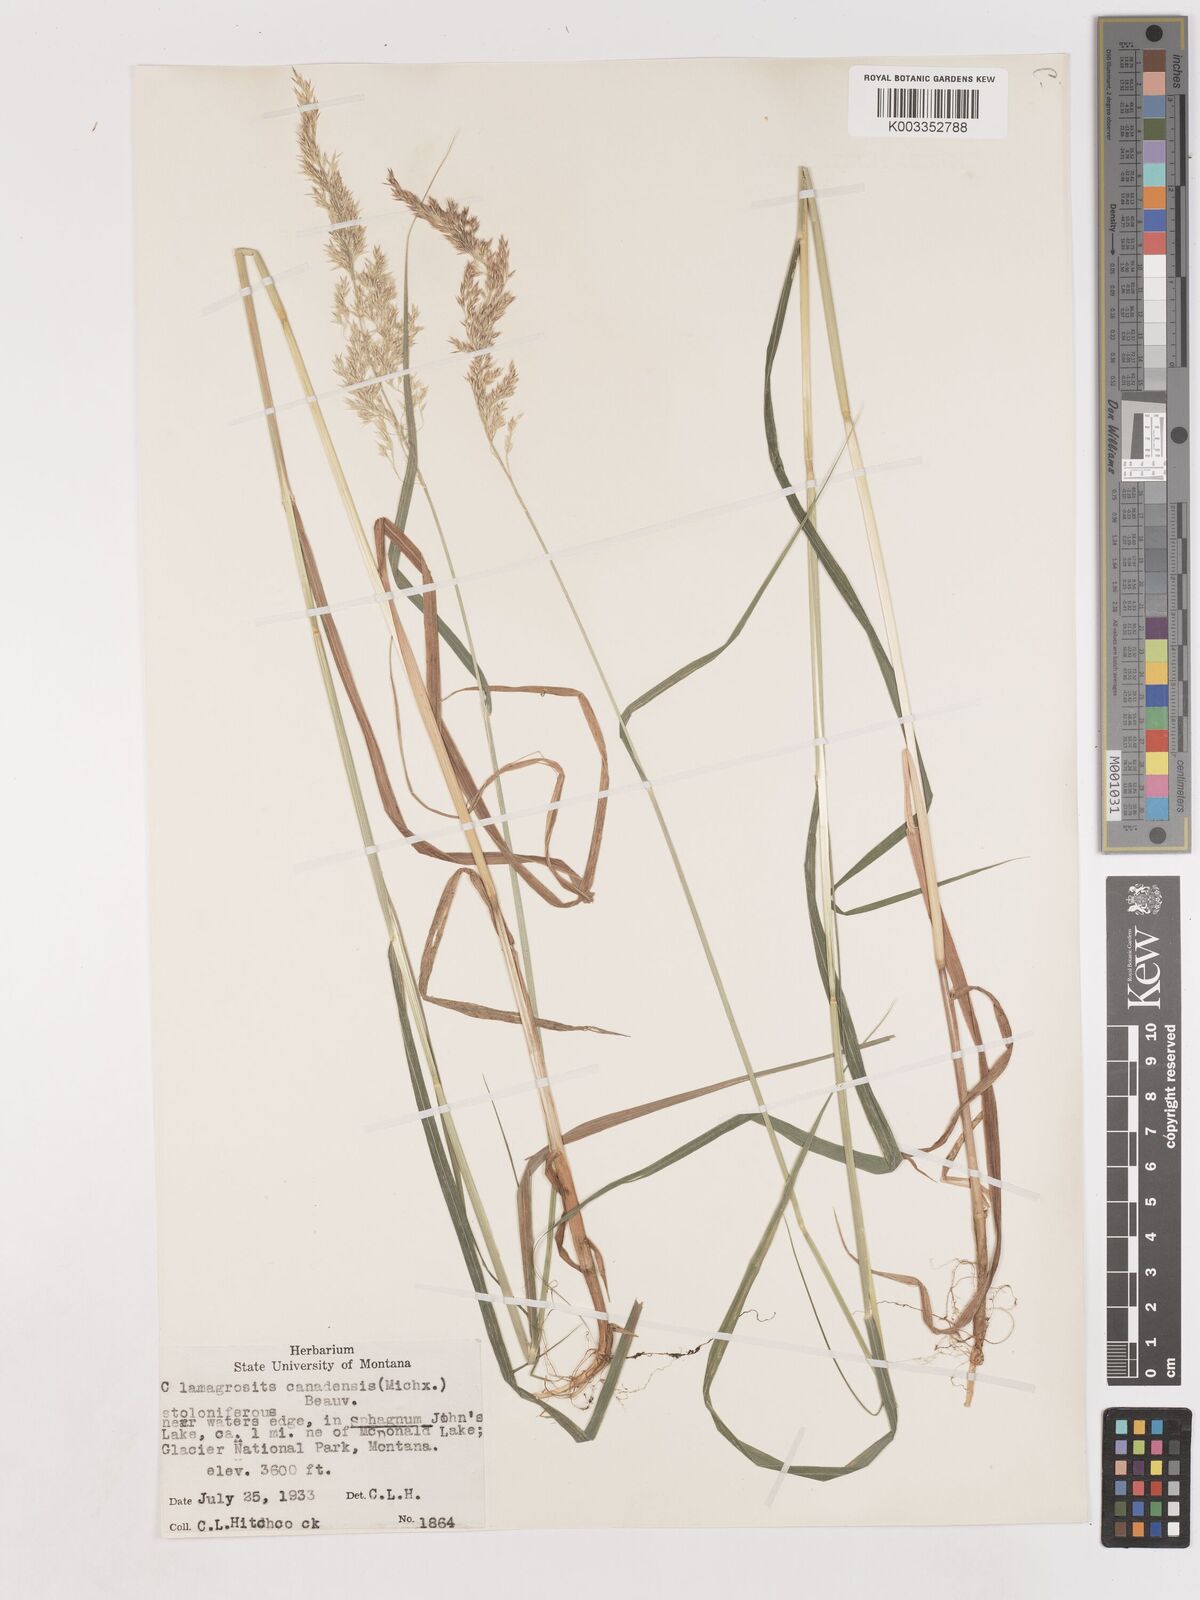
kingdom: Plantae
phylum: Tracheophyta
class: Liliopsida
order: Poales
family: Poaceae
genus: Calamagrostis
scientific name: Calamagrostis canadensis
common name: Canada bluejoint
